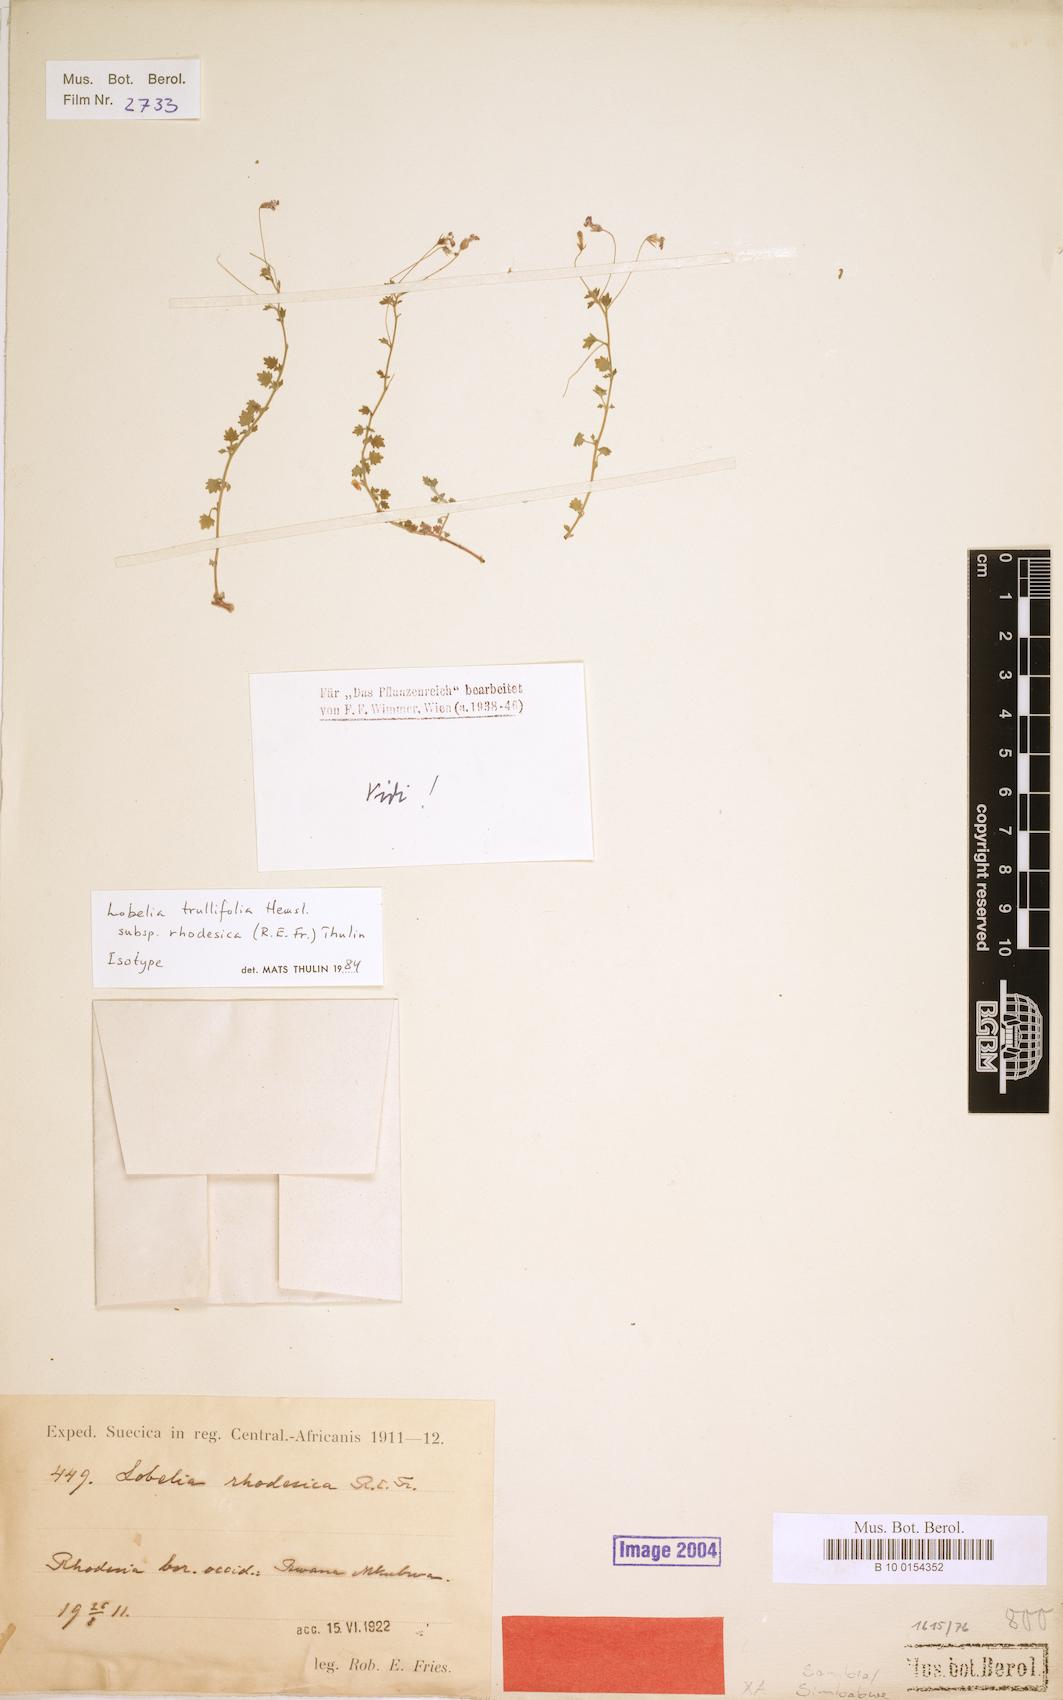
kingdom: Plantae
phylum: Tracheophyta
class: Magnoliopsida
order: Asterales
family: Campanulaceae
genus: Lobelia
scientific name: Lobelia trullifolia
